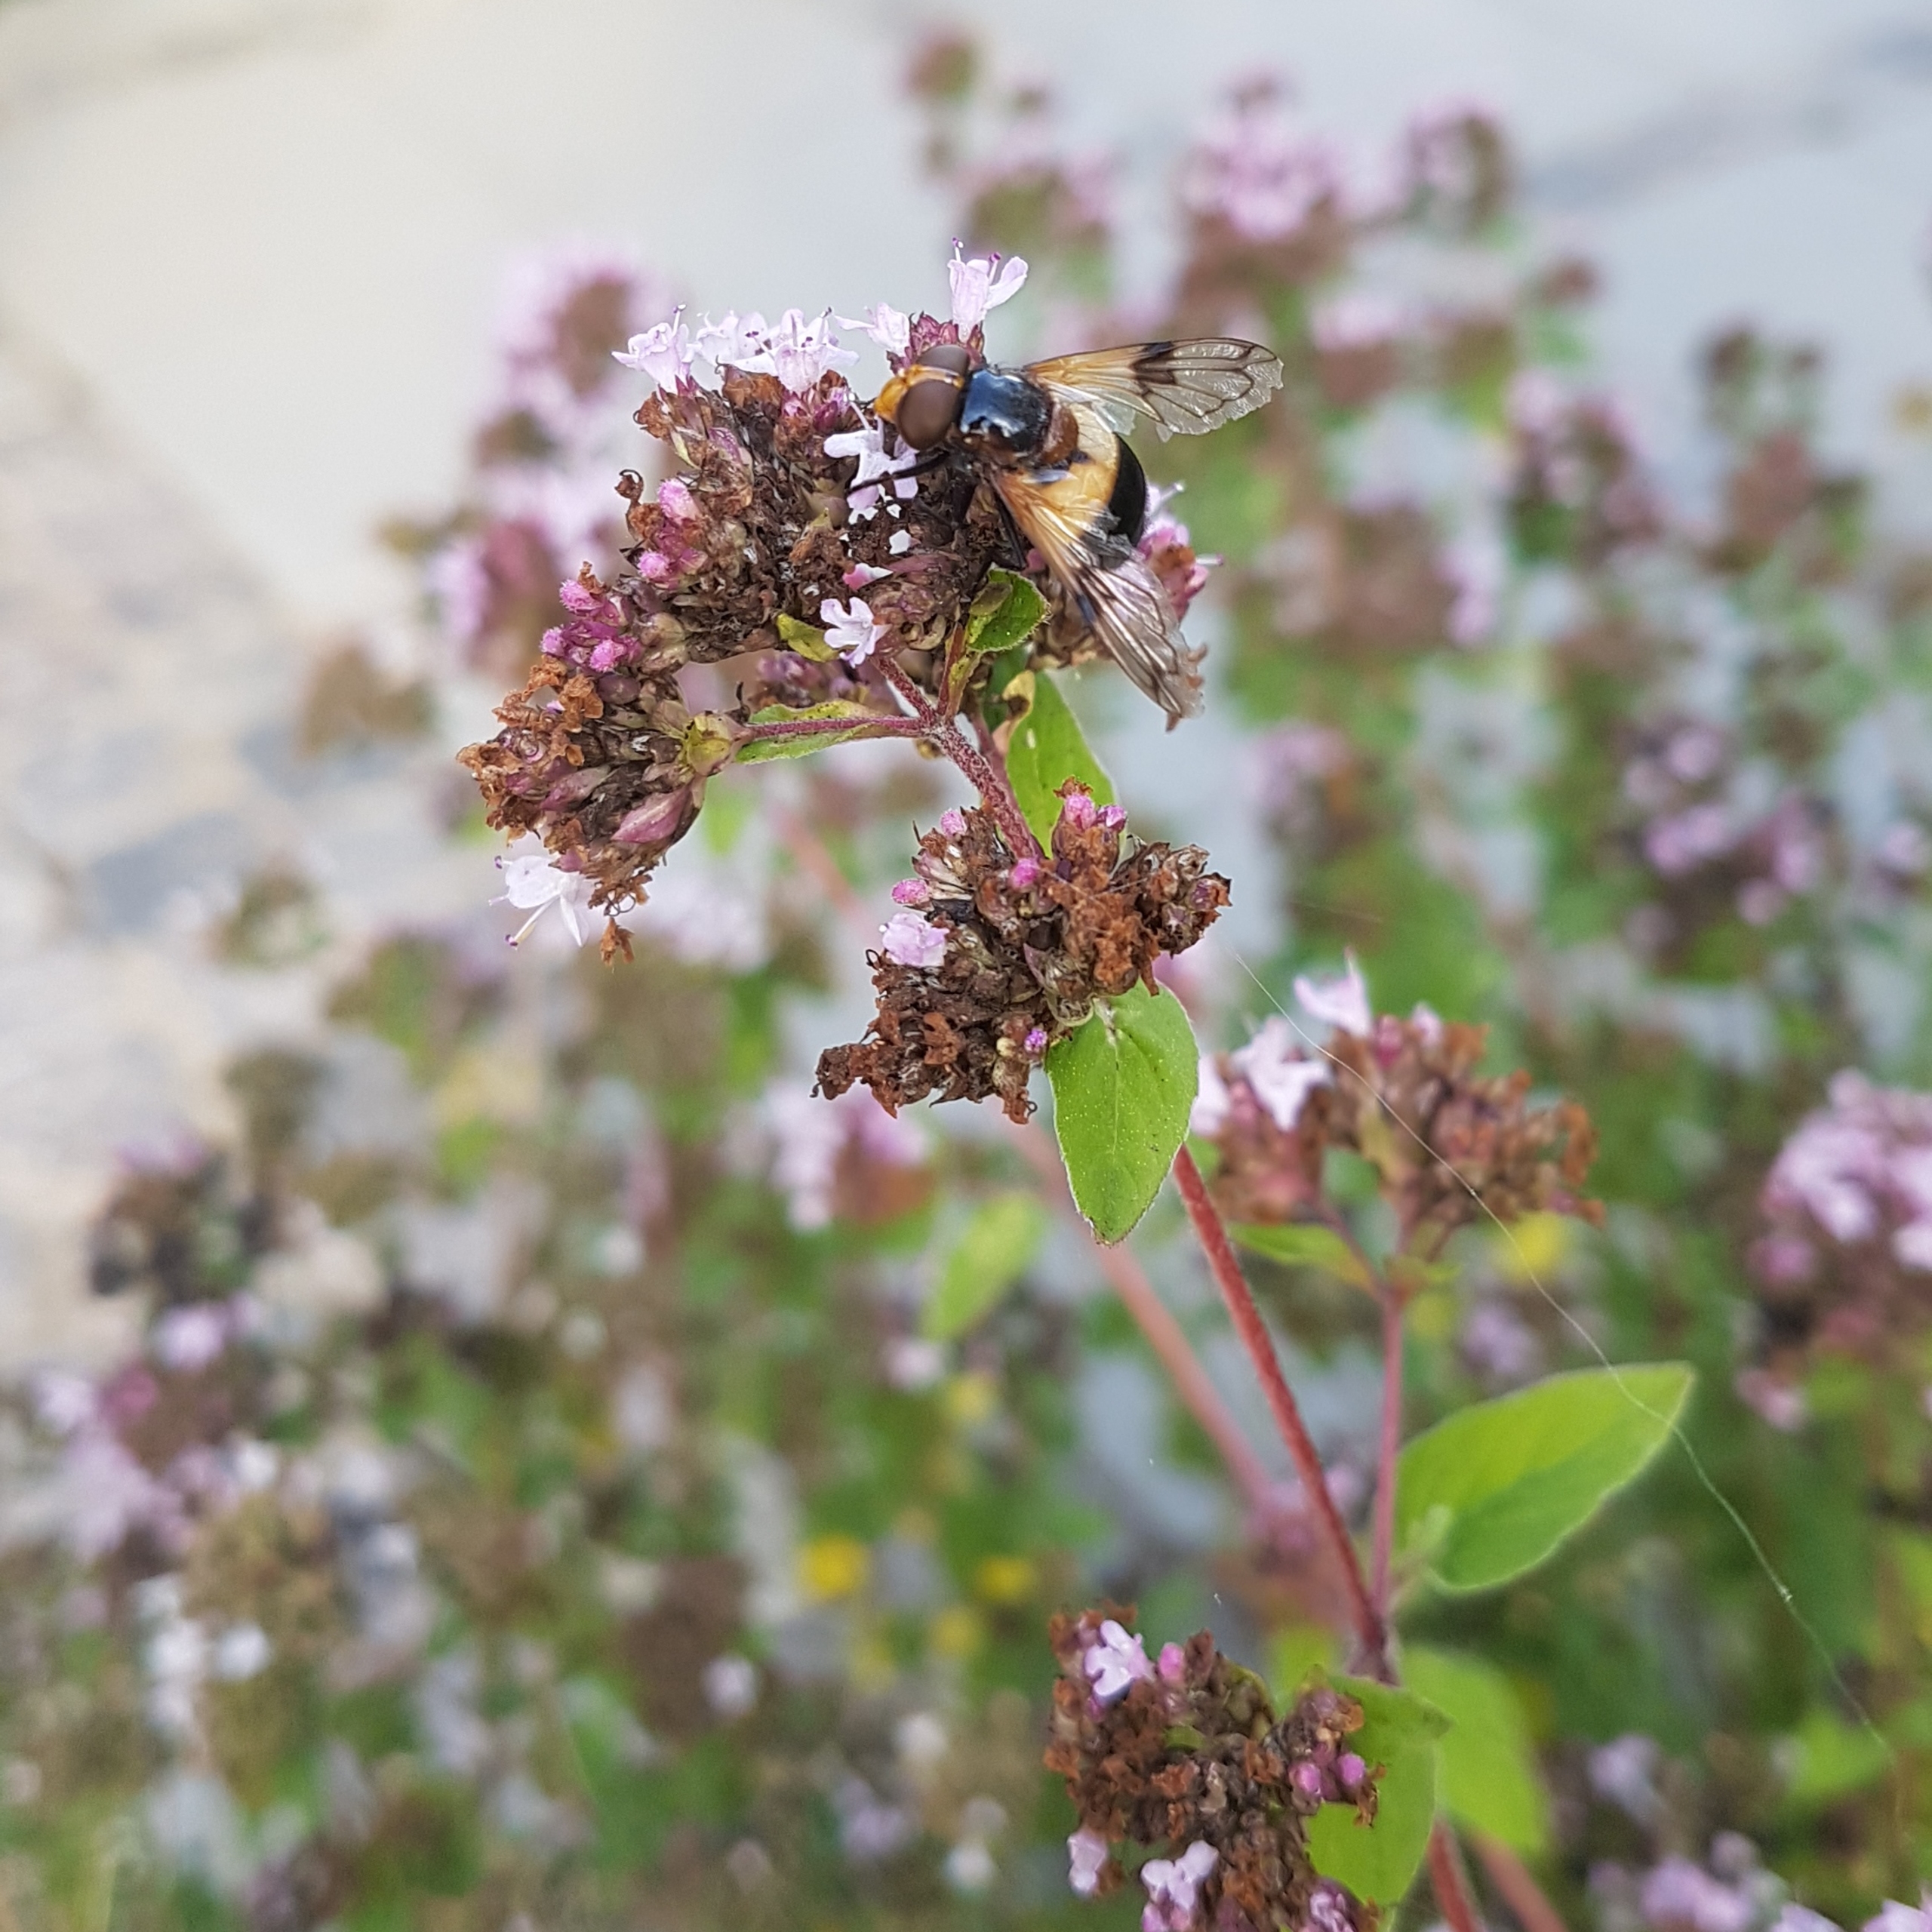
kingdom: Animalia
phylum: Arthropoda
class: Insecta
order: Diptera
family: Syrphidae
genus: Volucella
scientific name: Volucella pellucens
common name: Hvidbåndet humlesvirreflue
